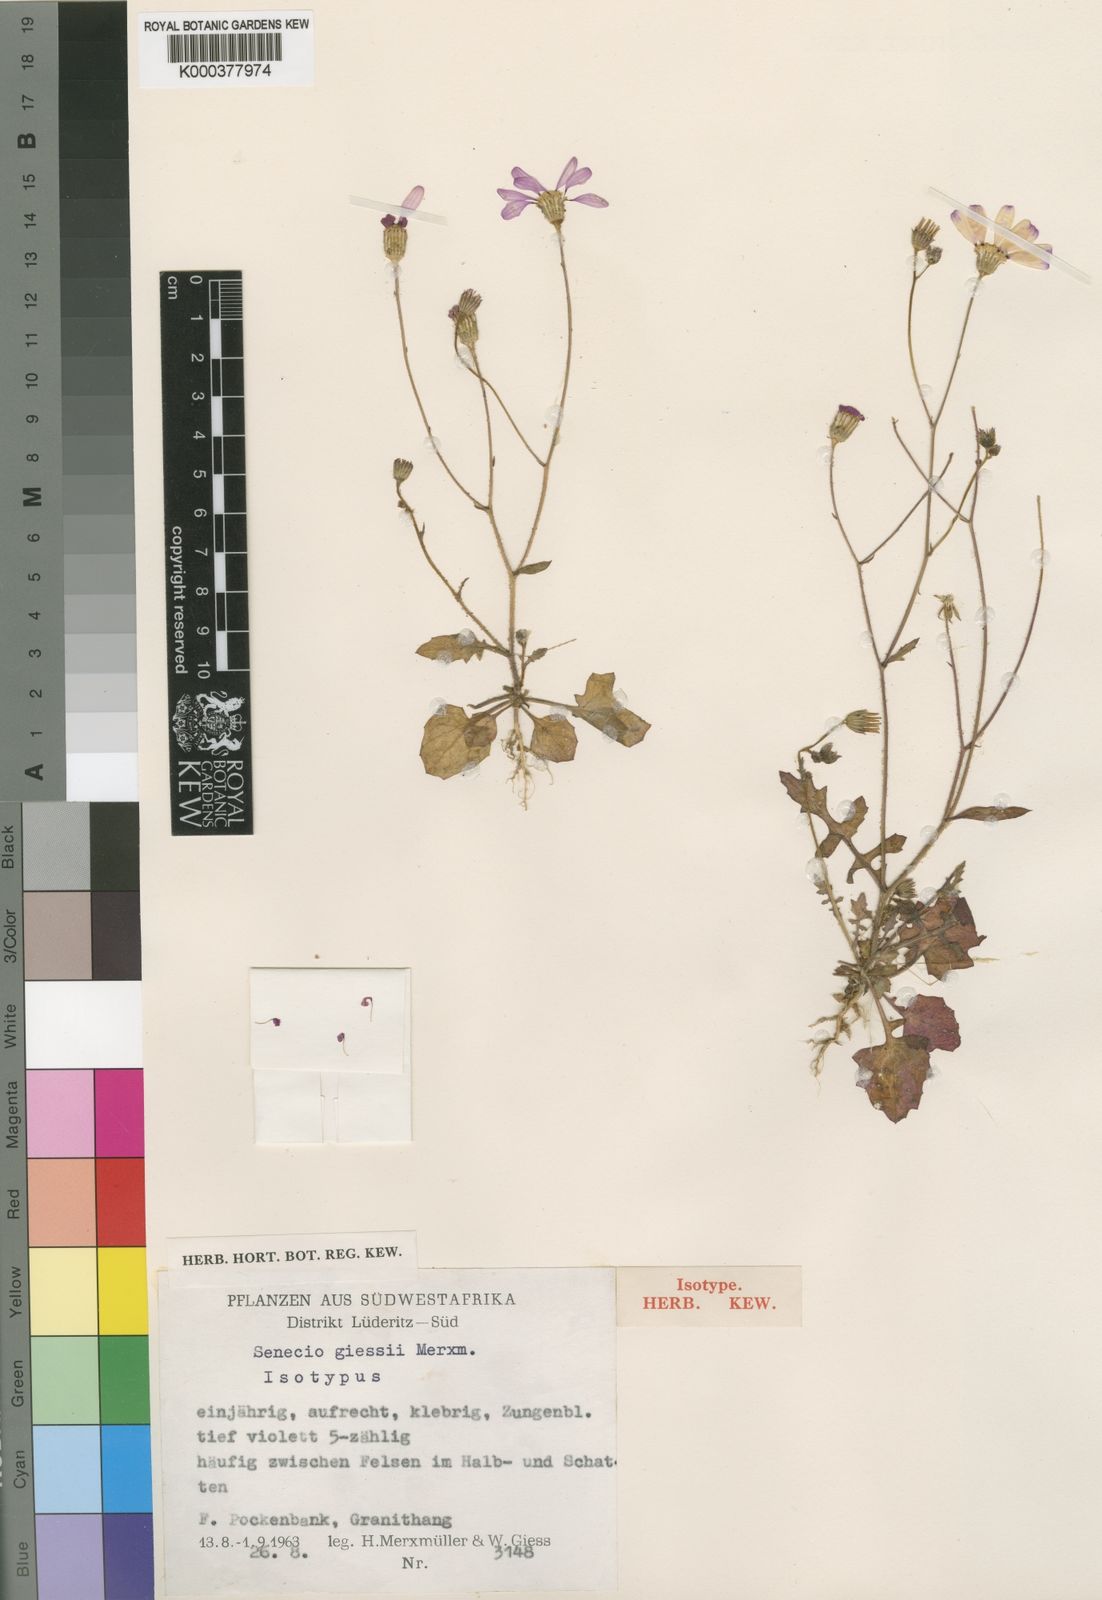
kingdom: Plantae
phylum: Tracheophyta
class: Magnoliopsida
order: Asterales
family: Asteraceae
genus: Senecio
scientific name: Senecio giessii
